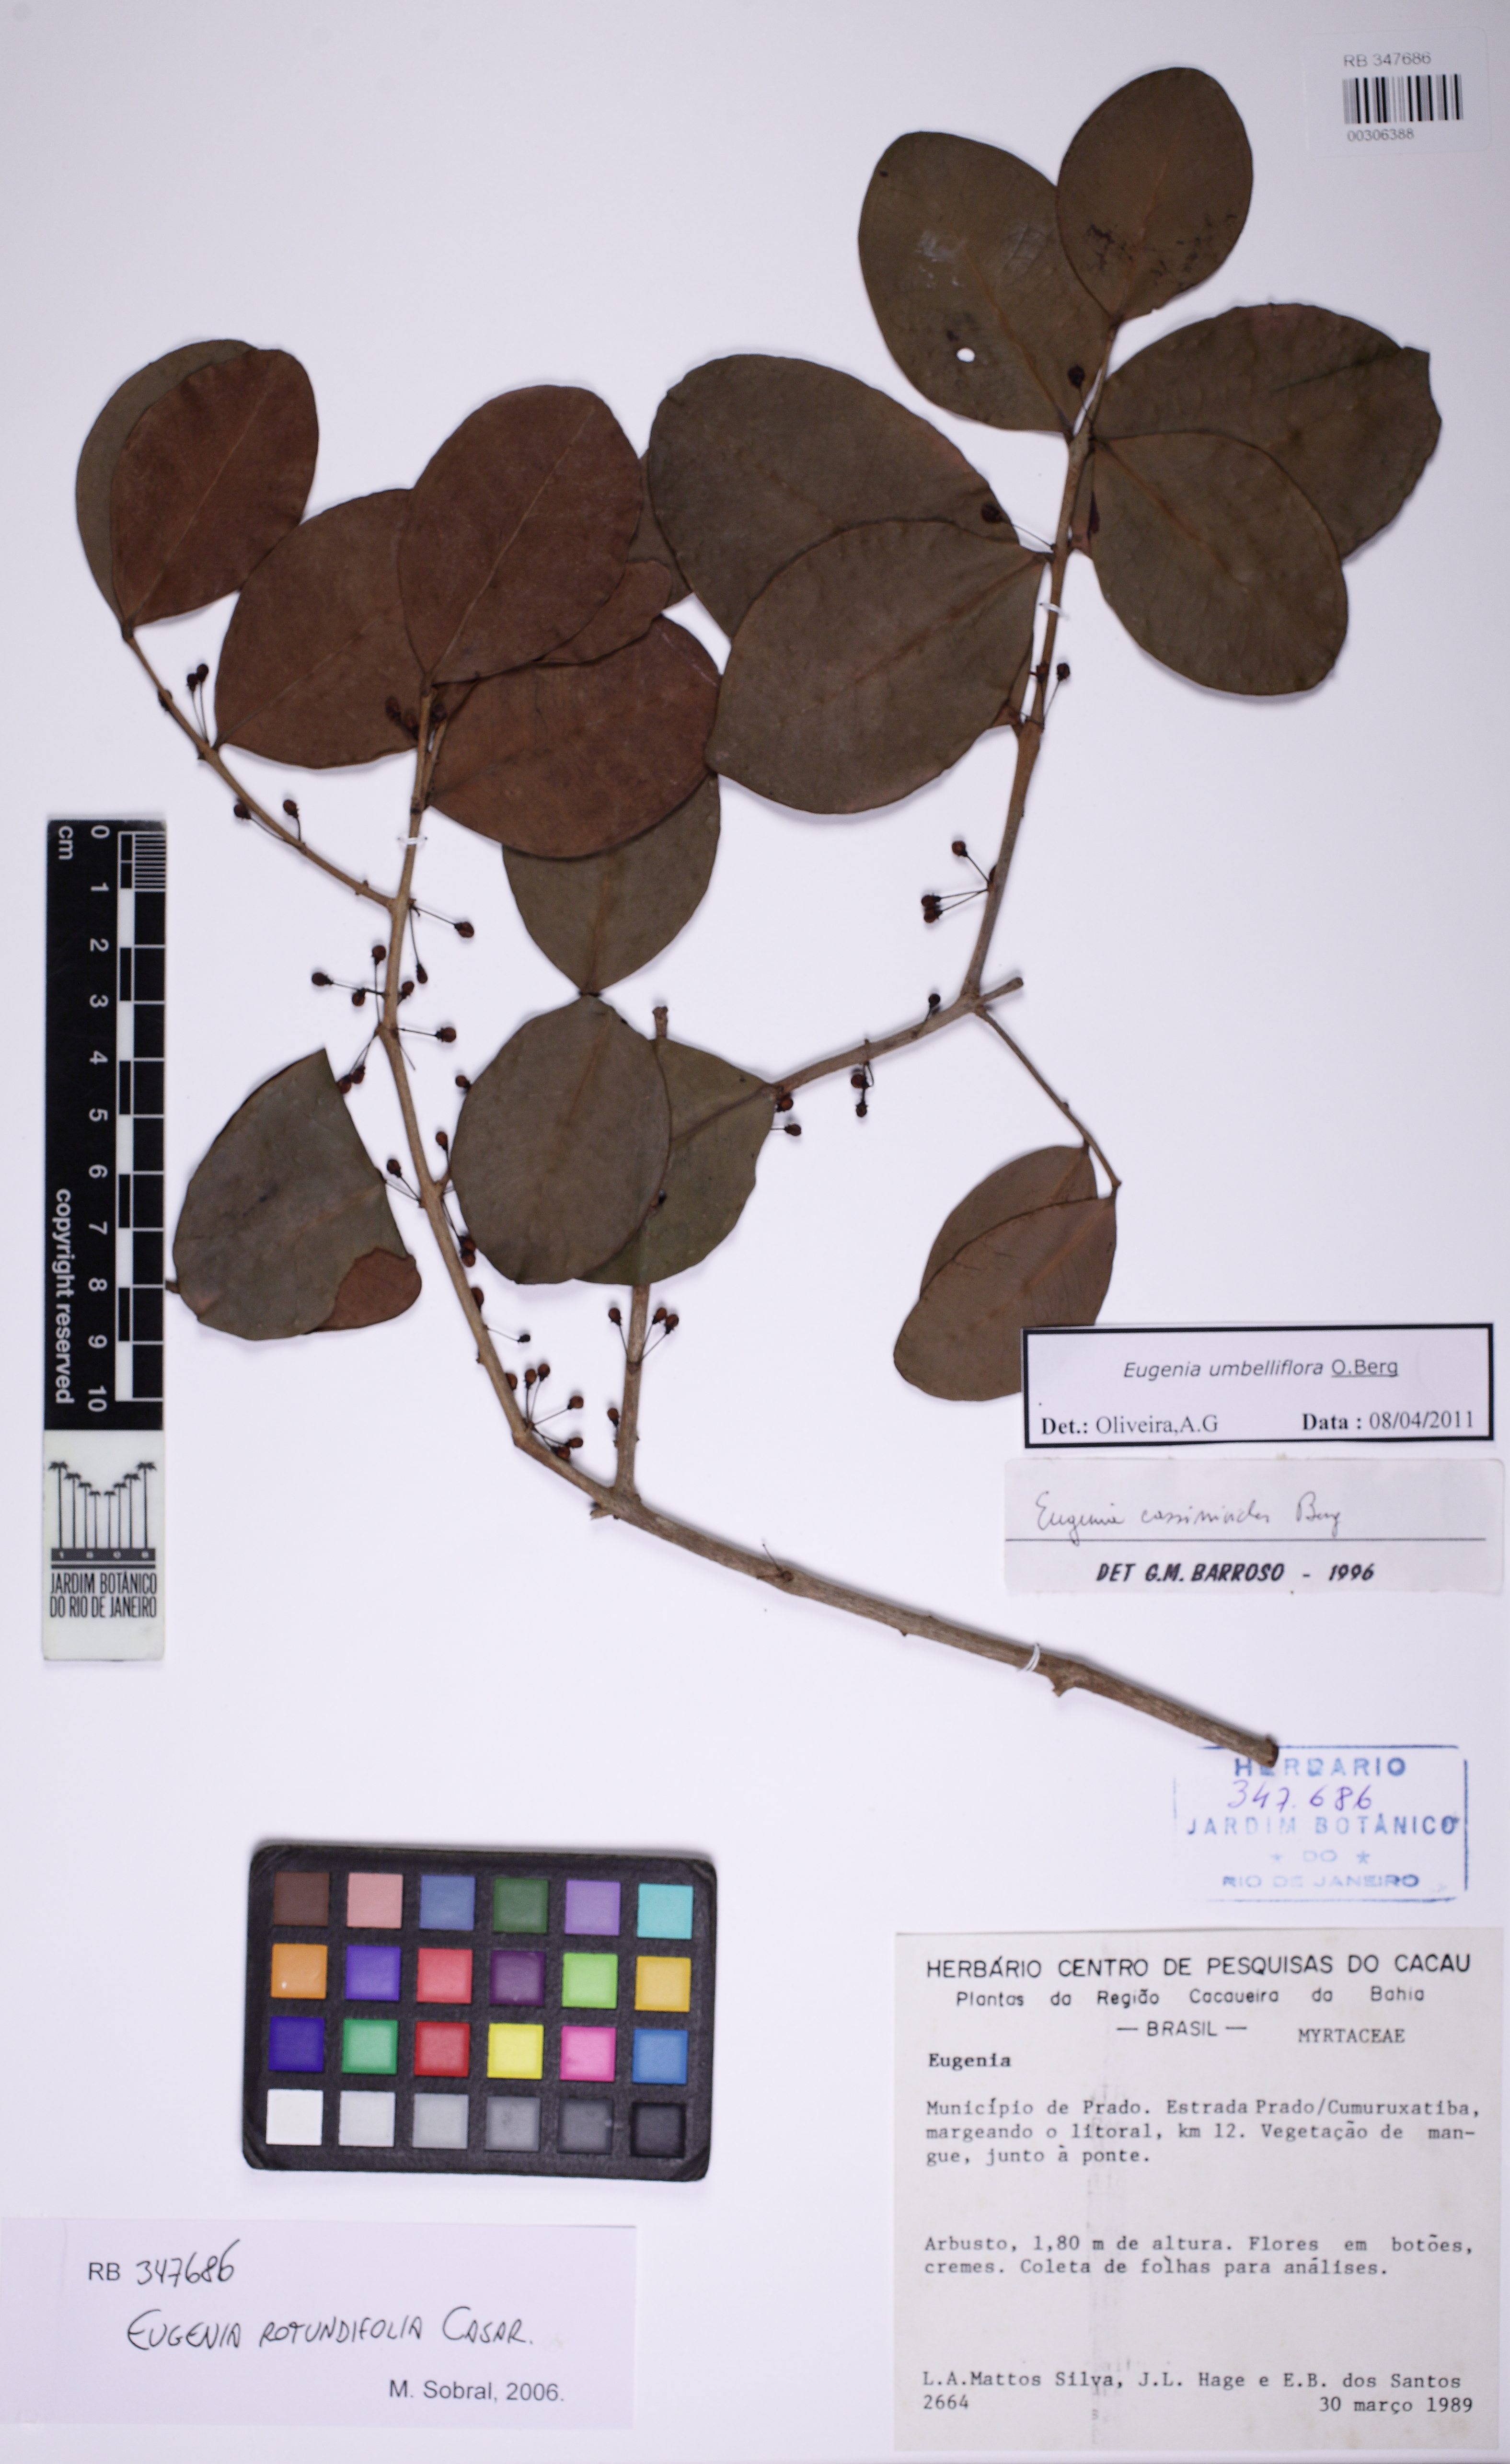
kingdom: Plantae
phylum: Tracheophyta
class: Magnoliopsida
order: Myrtales
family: Myrtaceae
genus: Eugenia
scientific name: Eugenia umbelliflora
